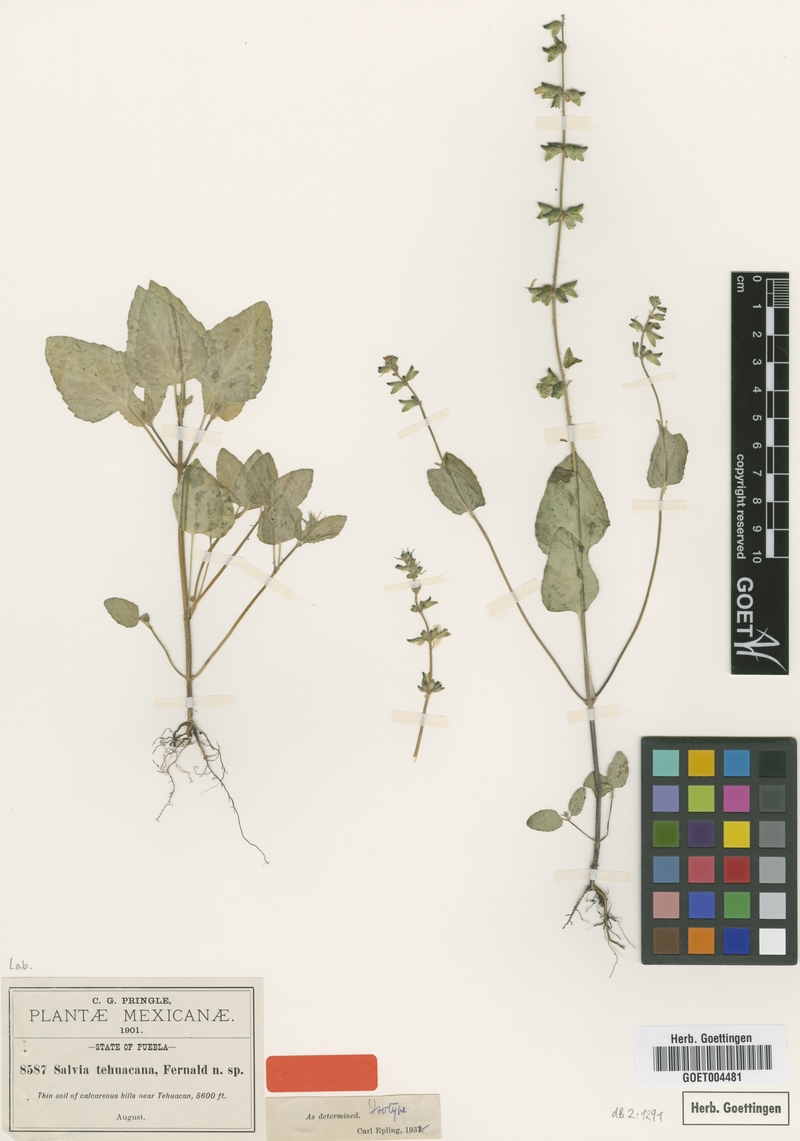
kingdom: Plantae
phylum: Tracheophyta
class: Magnoliopsida
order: Lamiales
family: Lamiaceae
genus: Salvia
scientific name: Salvia tehuacana
